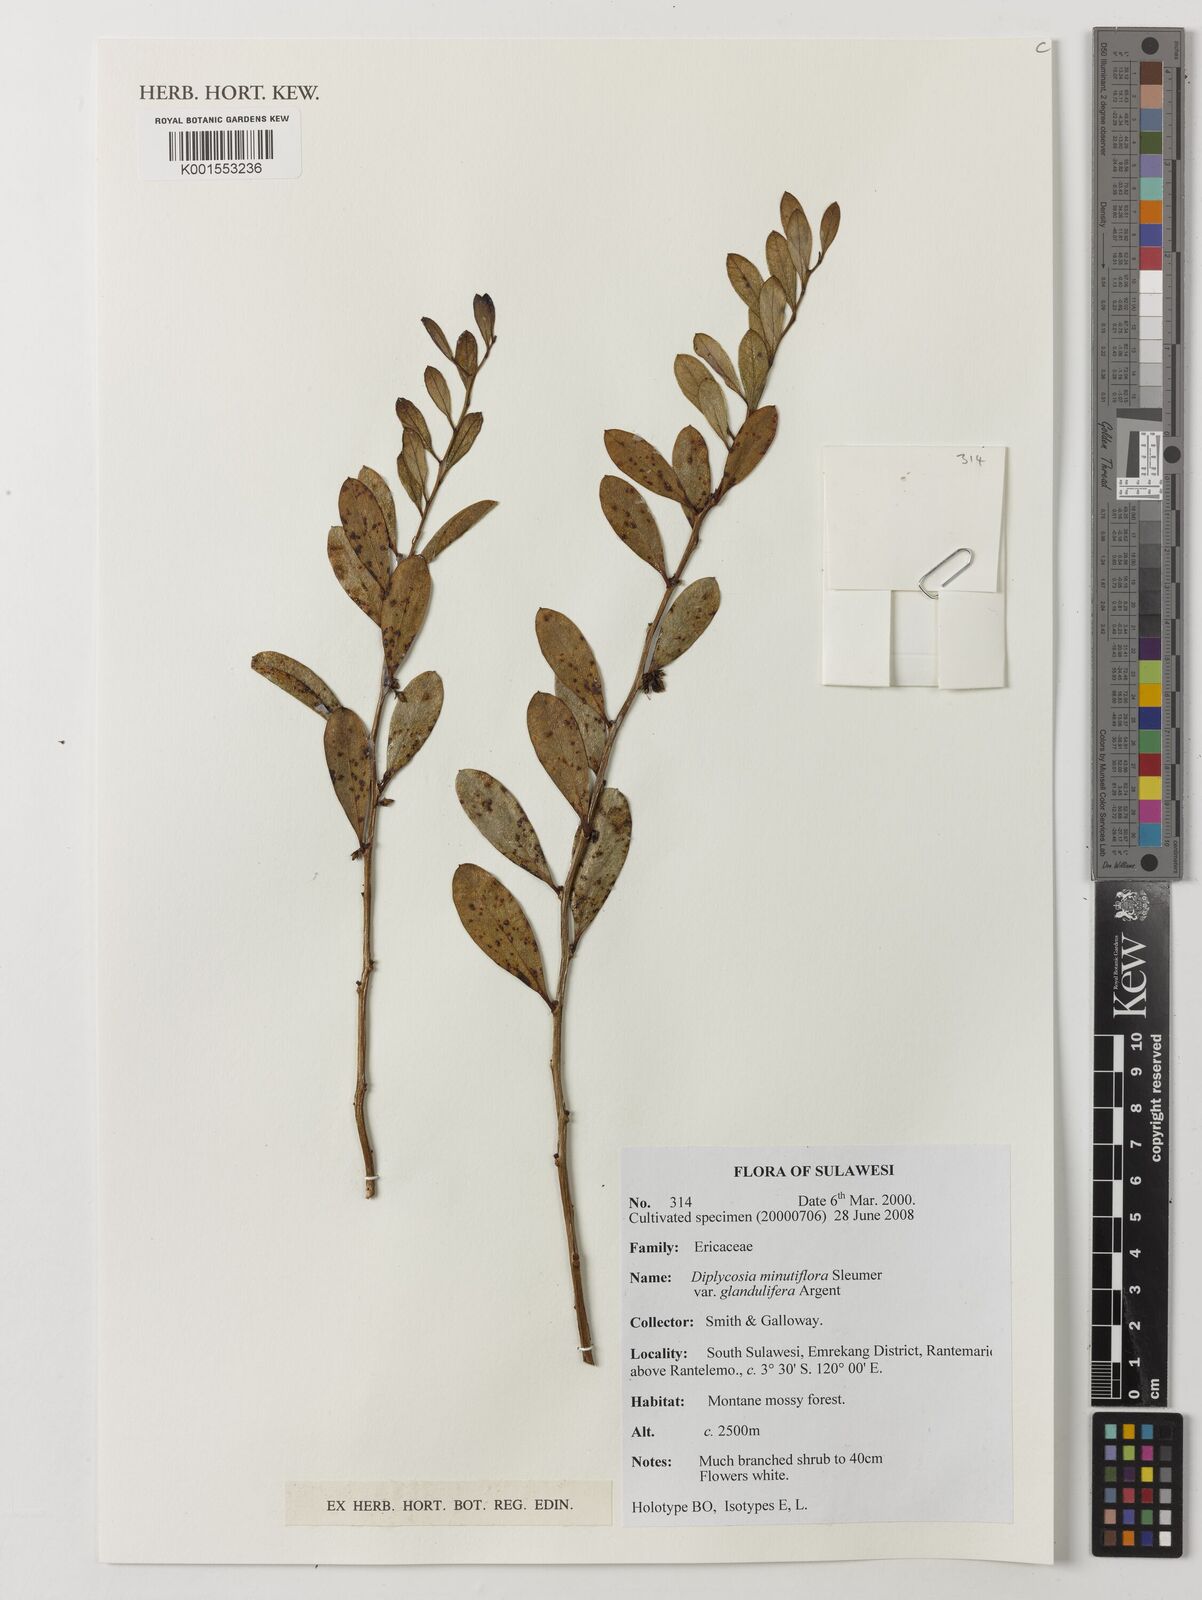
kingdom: Plantae
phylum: Tracheophyta
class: Magnoliopsida
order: Ericales
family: Ericaceae
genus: Gaultheria
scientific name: Gaultheria minutiflora
